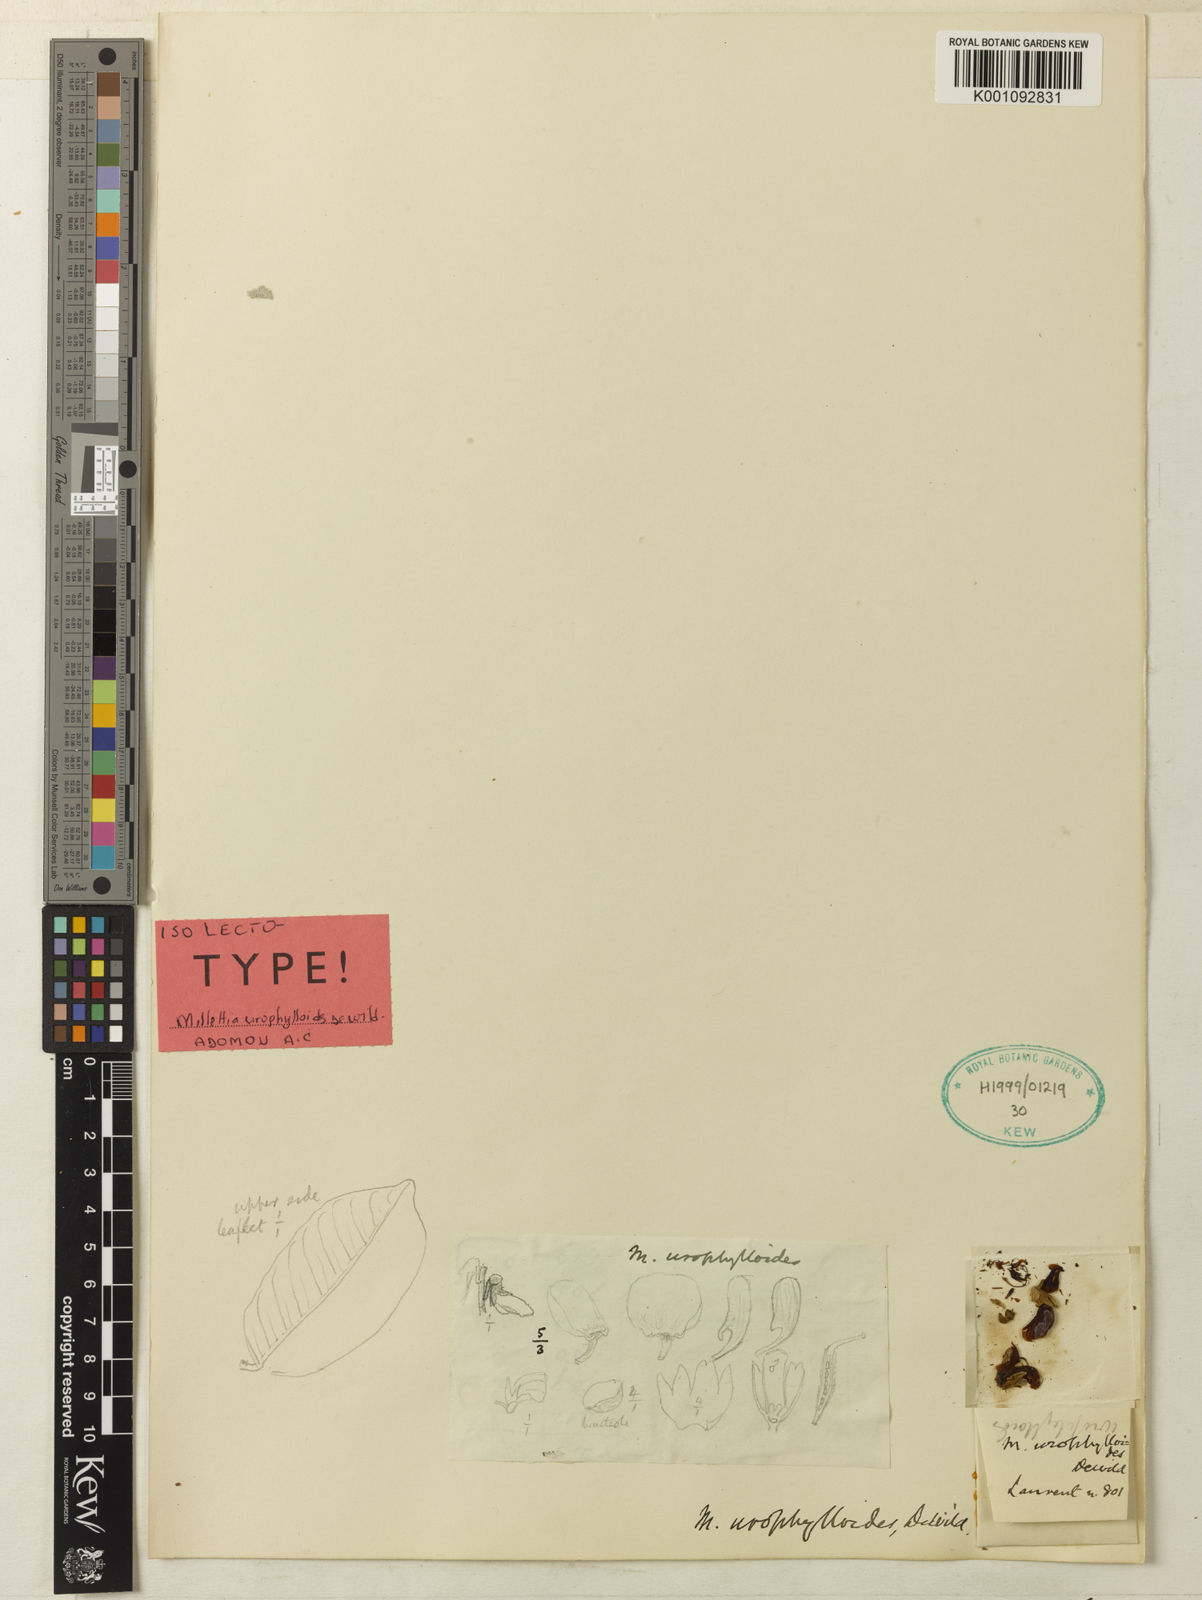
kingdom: Plantae
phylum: Tracheophyta
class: Magnoliopsida
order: Fabales
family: Fabaceae
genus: Millettia
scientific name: Millettia urophylloides
